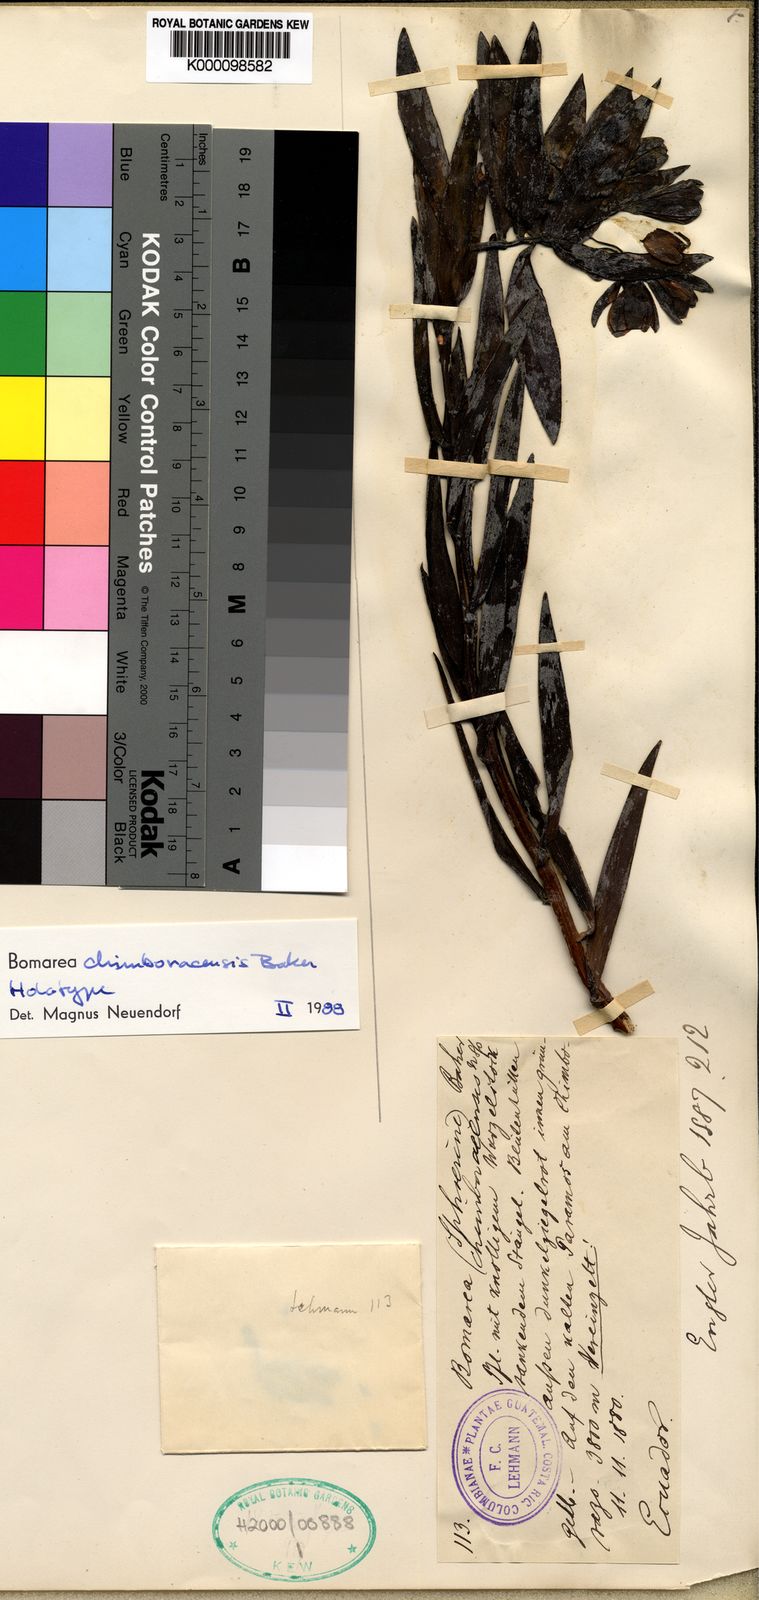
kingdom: Plantae
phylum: Tracheophyta
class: Liliopsida
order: Liliales
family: Alstroemeriaceae
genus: Bomarea
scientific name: Bomarea chimboracensis
